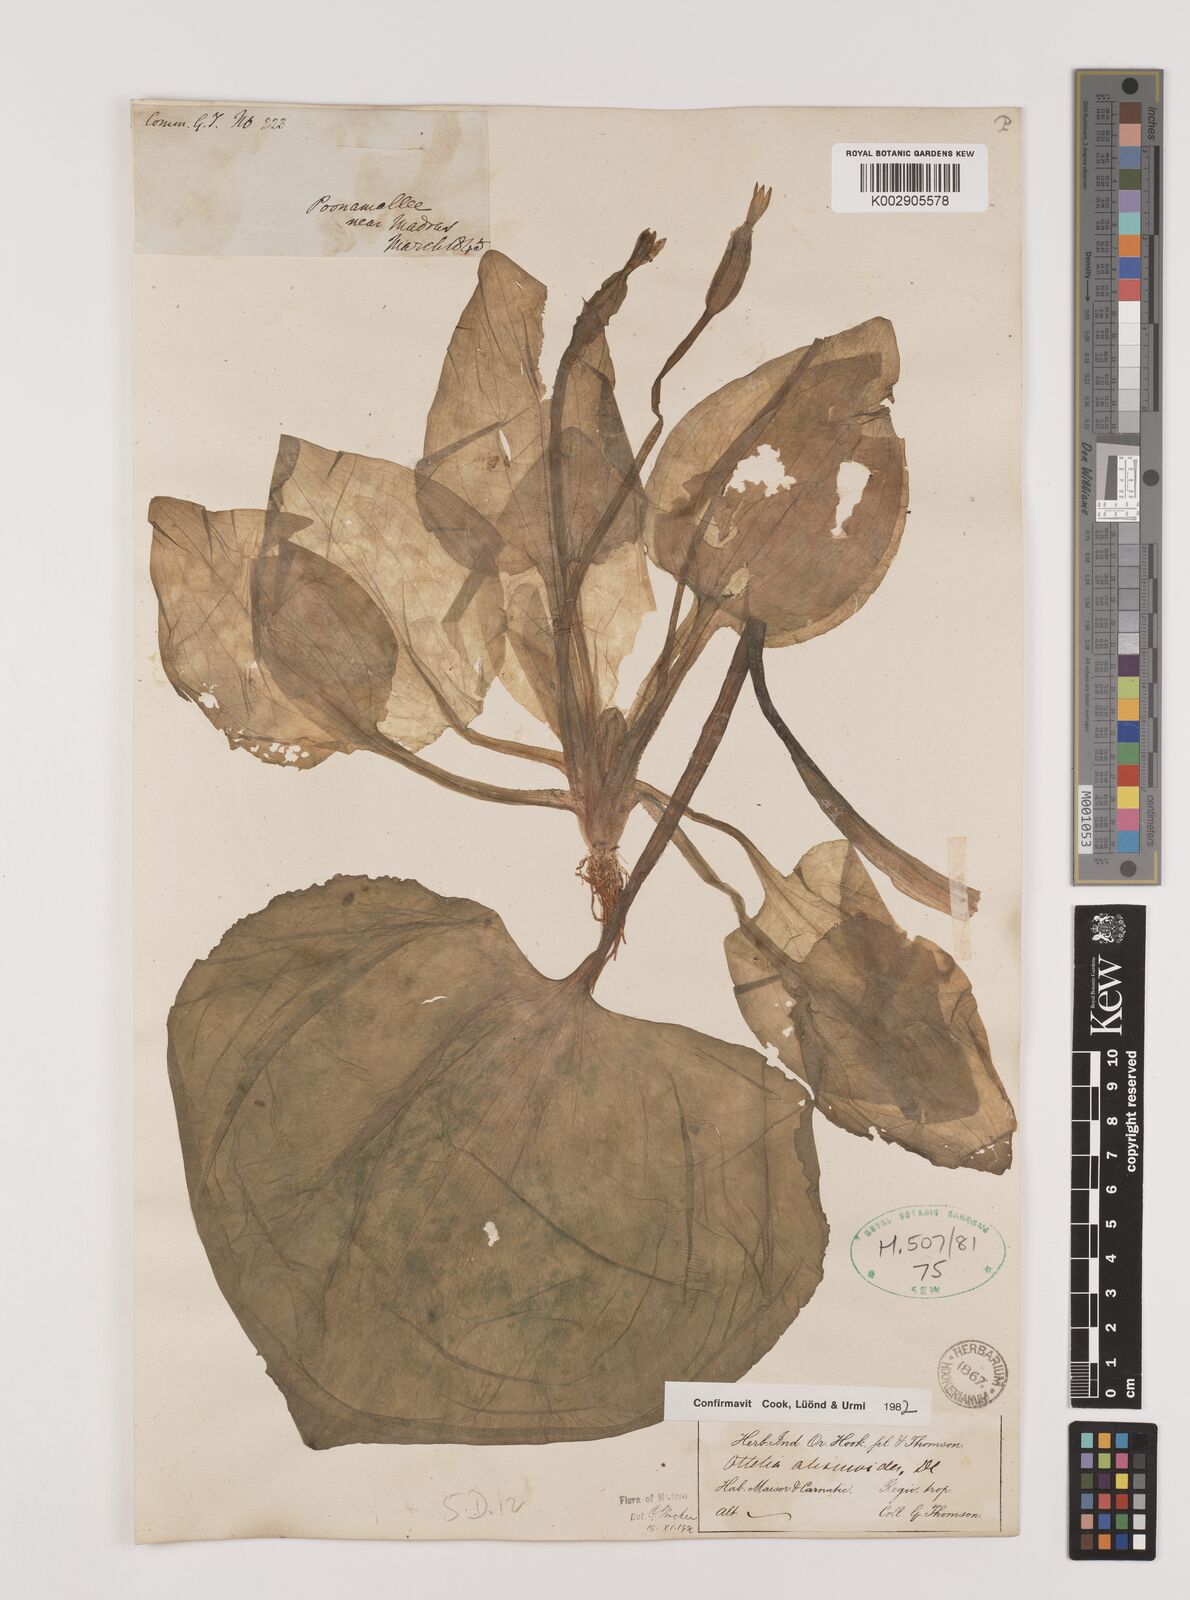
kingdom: Plantae
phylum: Tracheophyta
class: Liliopsida
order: Alismatales
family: Hydrocharitaceae
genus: Ottelia
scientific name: Ottelia alismoides
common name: Duck-lettuce
